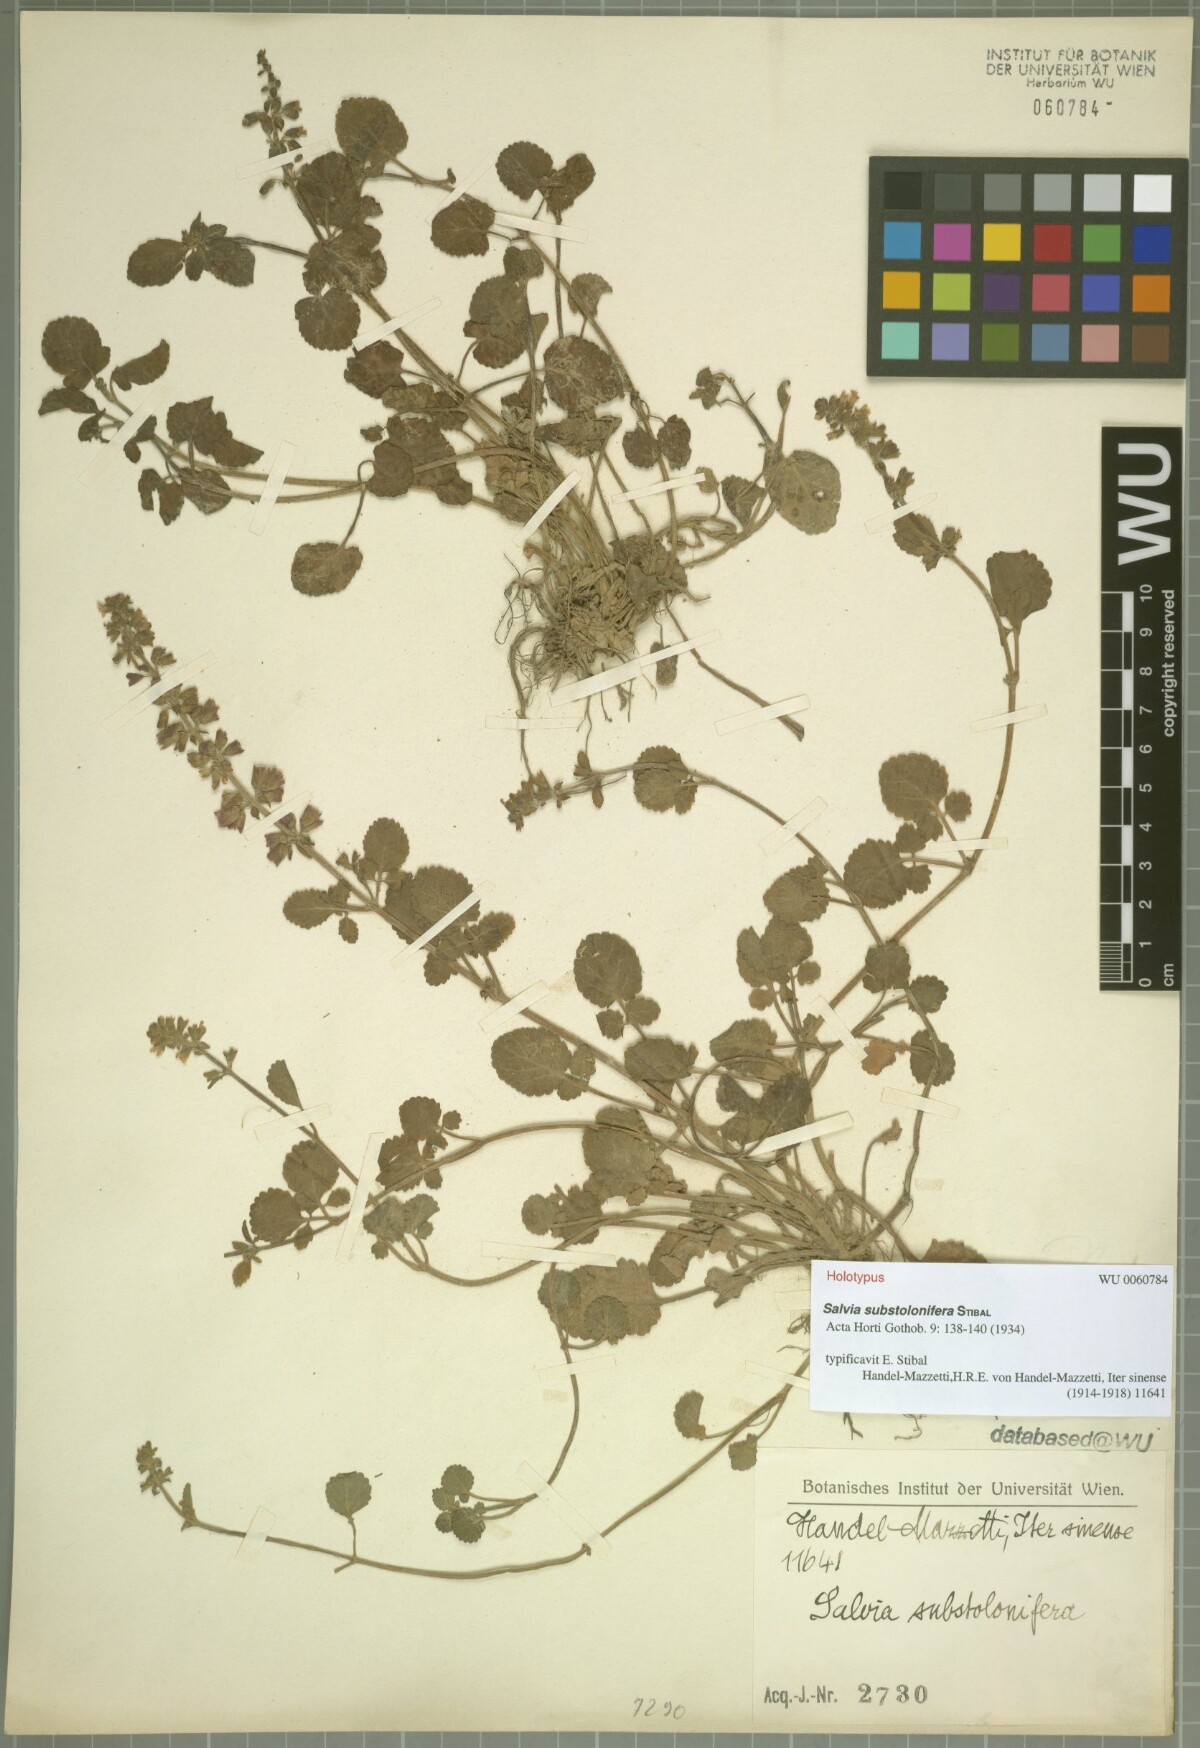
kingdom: Plantae
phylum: Tracheophyta
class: Magnoliopsida
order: Lamiales
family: Lamiaceae
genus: Salvia
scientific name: Salvia substolonifera
